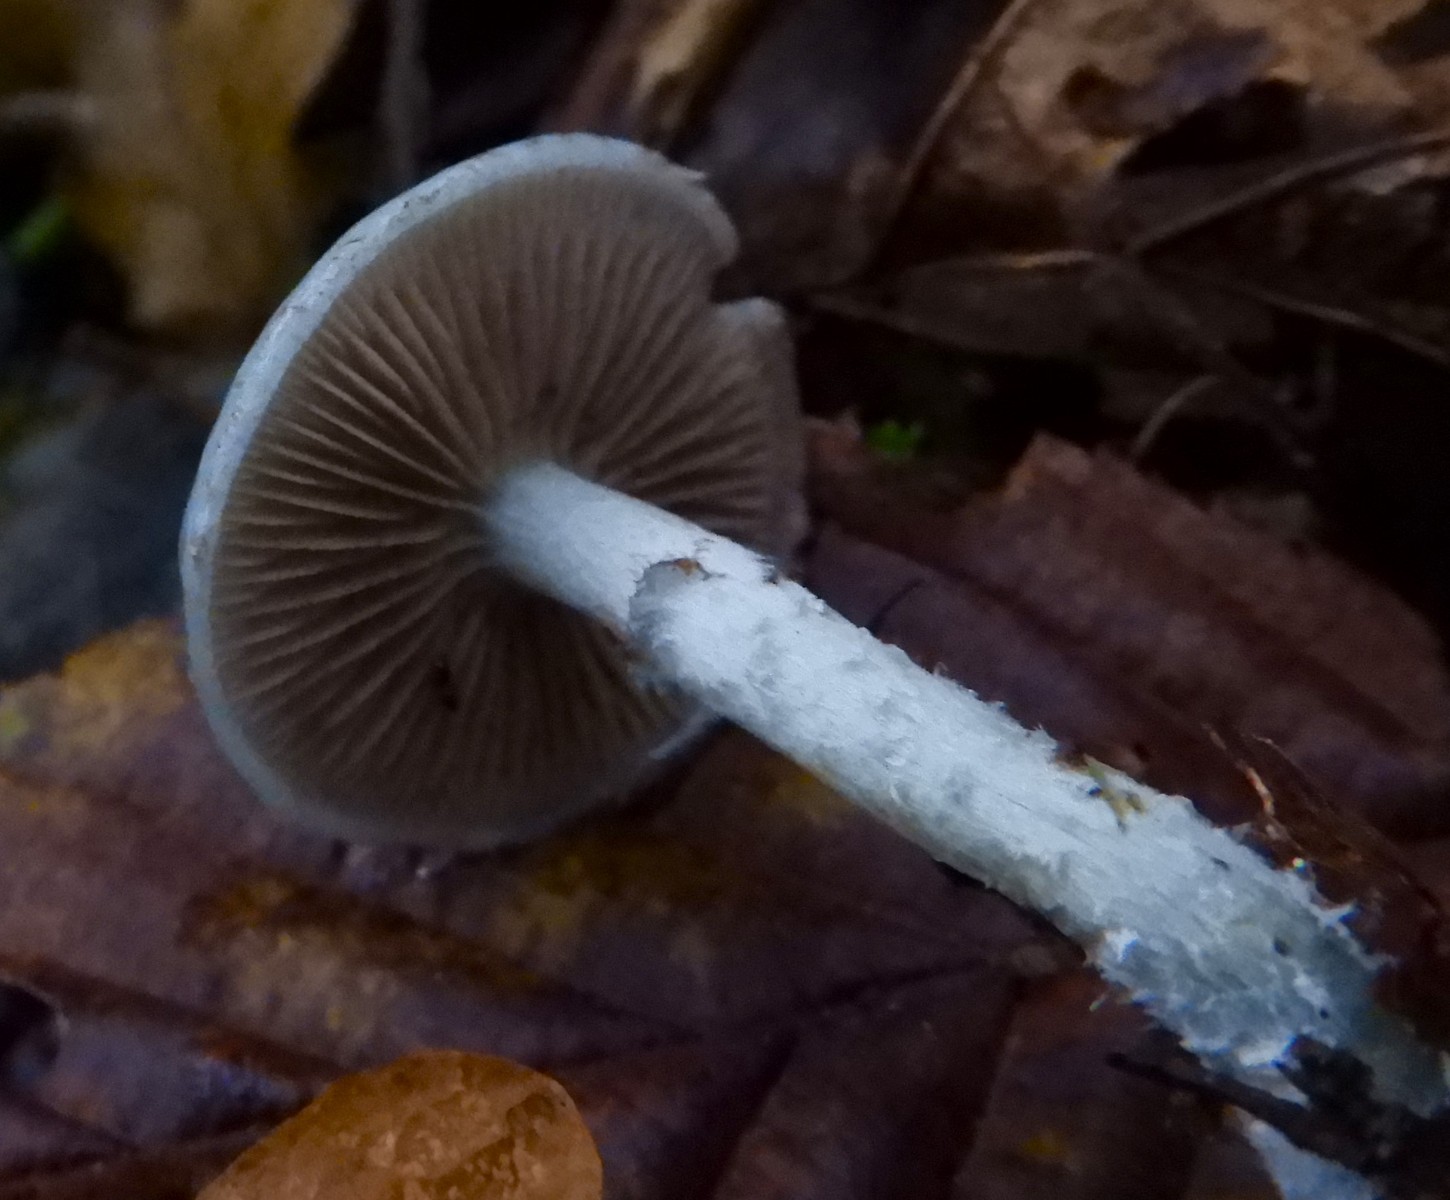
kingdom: Fungi
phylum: Basidiomycota
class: Agaricomycetes
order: Agaricales
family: Strophariaceae
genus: Stropharia
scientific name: Stropharia cyanea
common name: blågrøn bredblad
